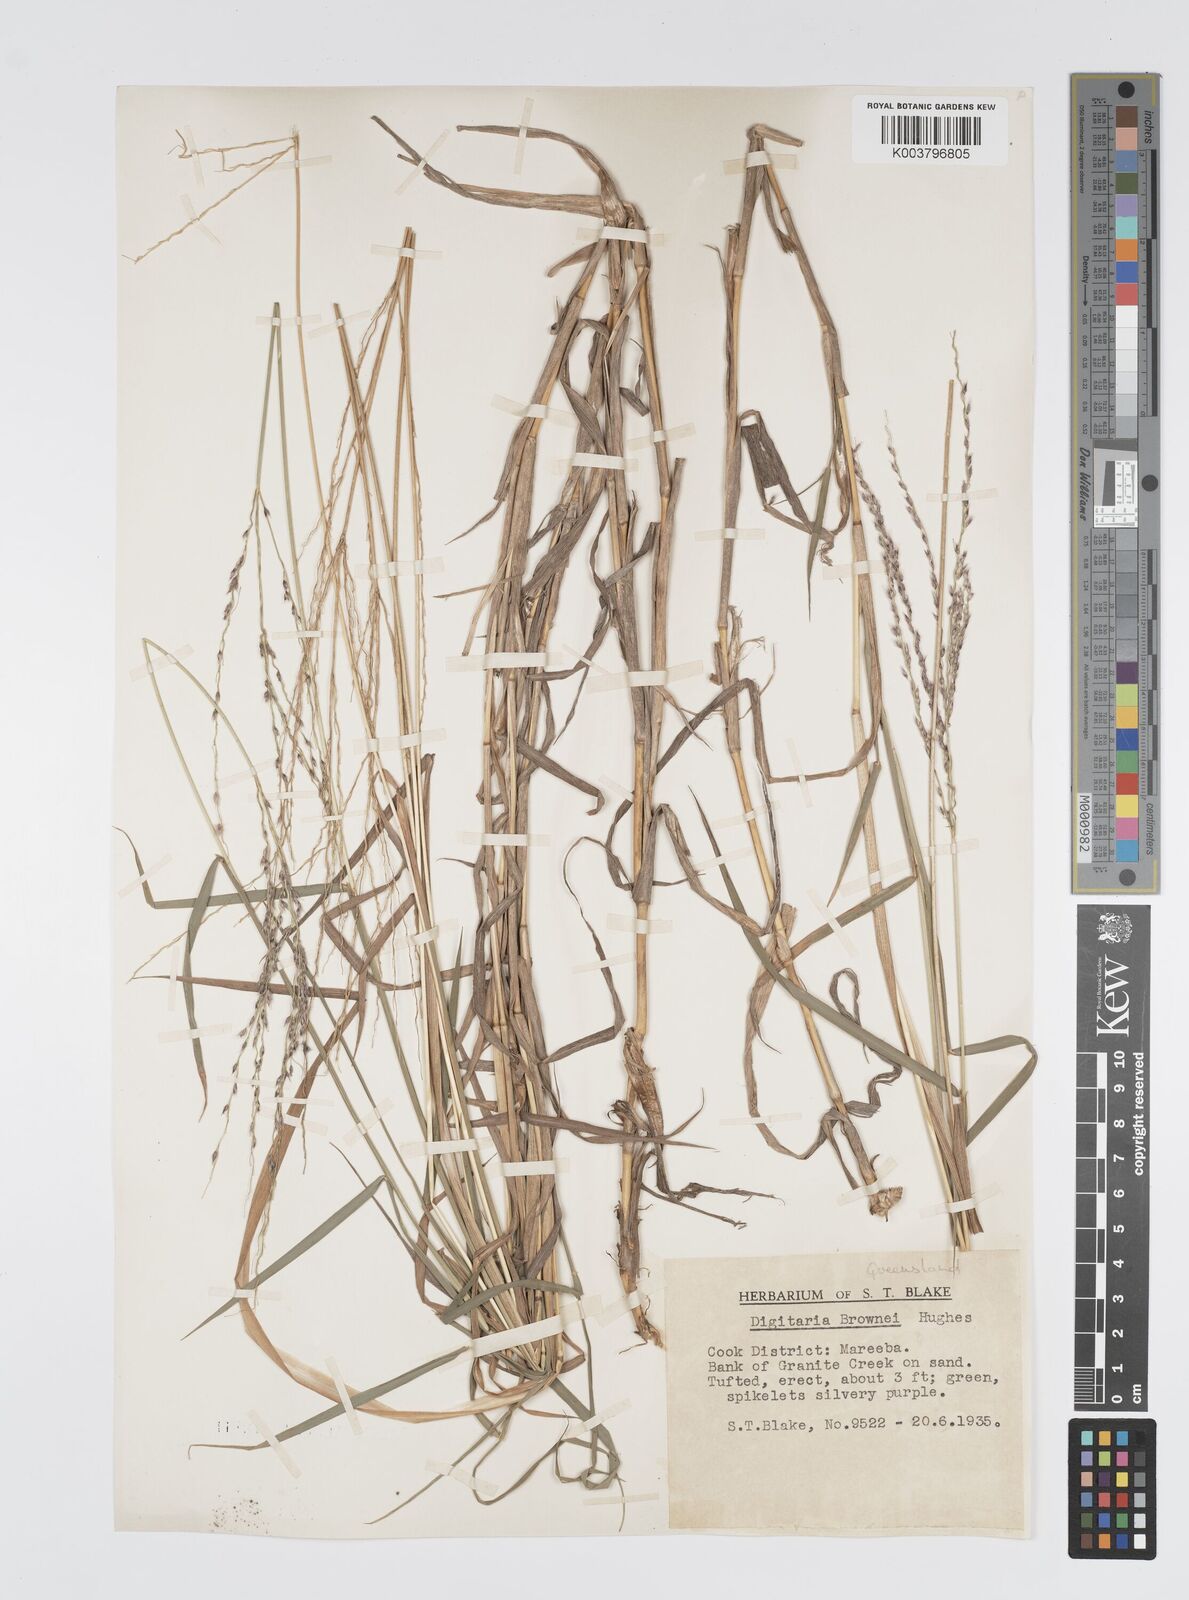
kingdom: Plantae
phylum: Tracheophyta
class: Liliopsida
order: Poales
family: Poaceae
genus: Digitaria
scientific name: Digitaria brownii
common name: Cotton grass
